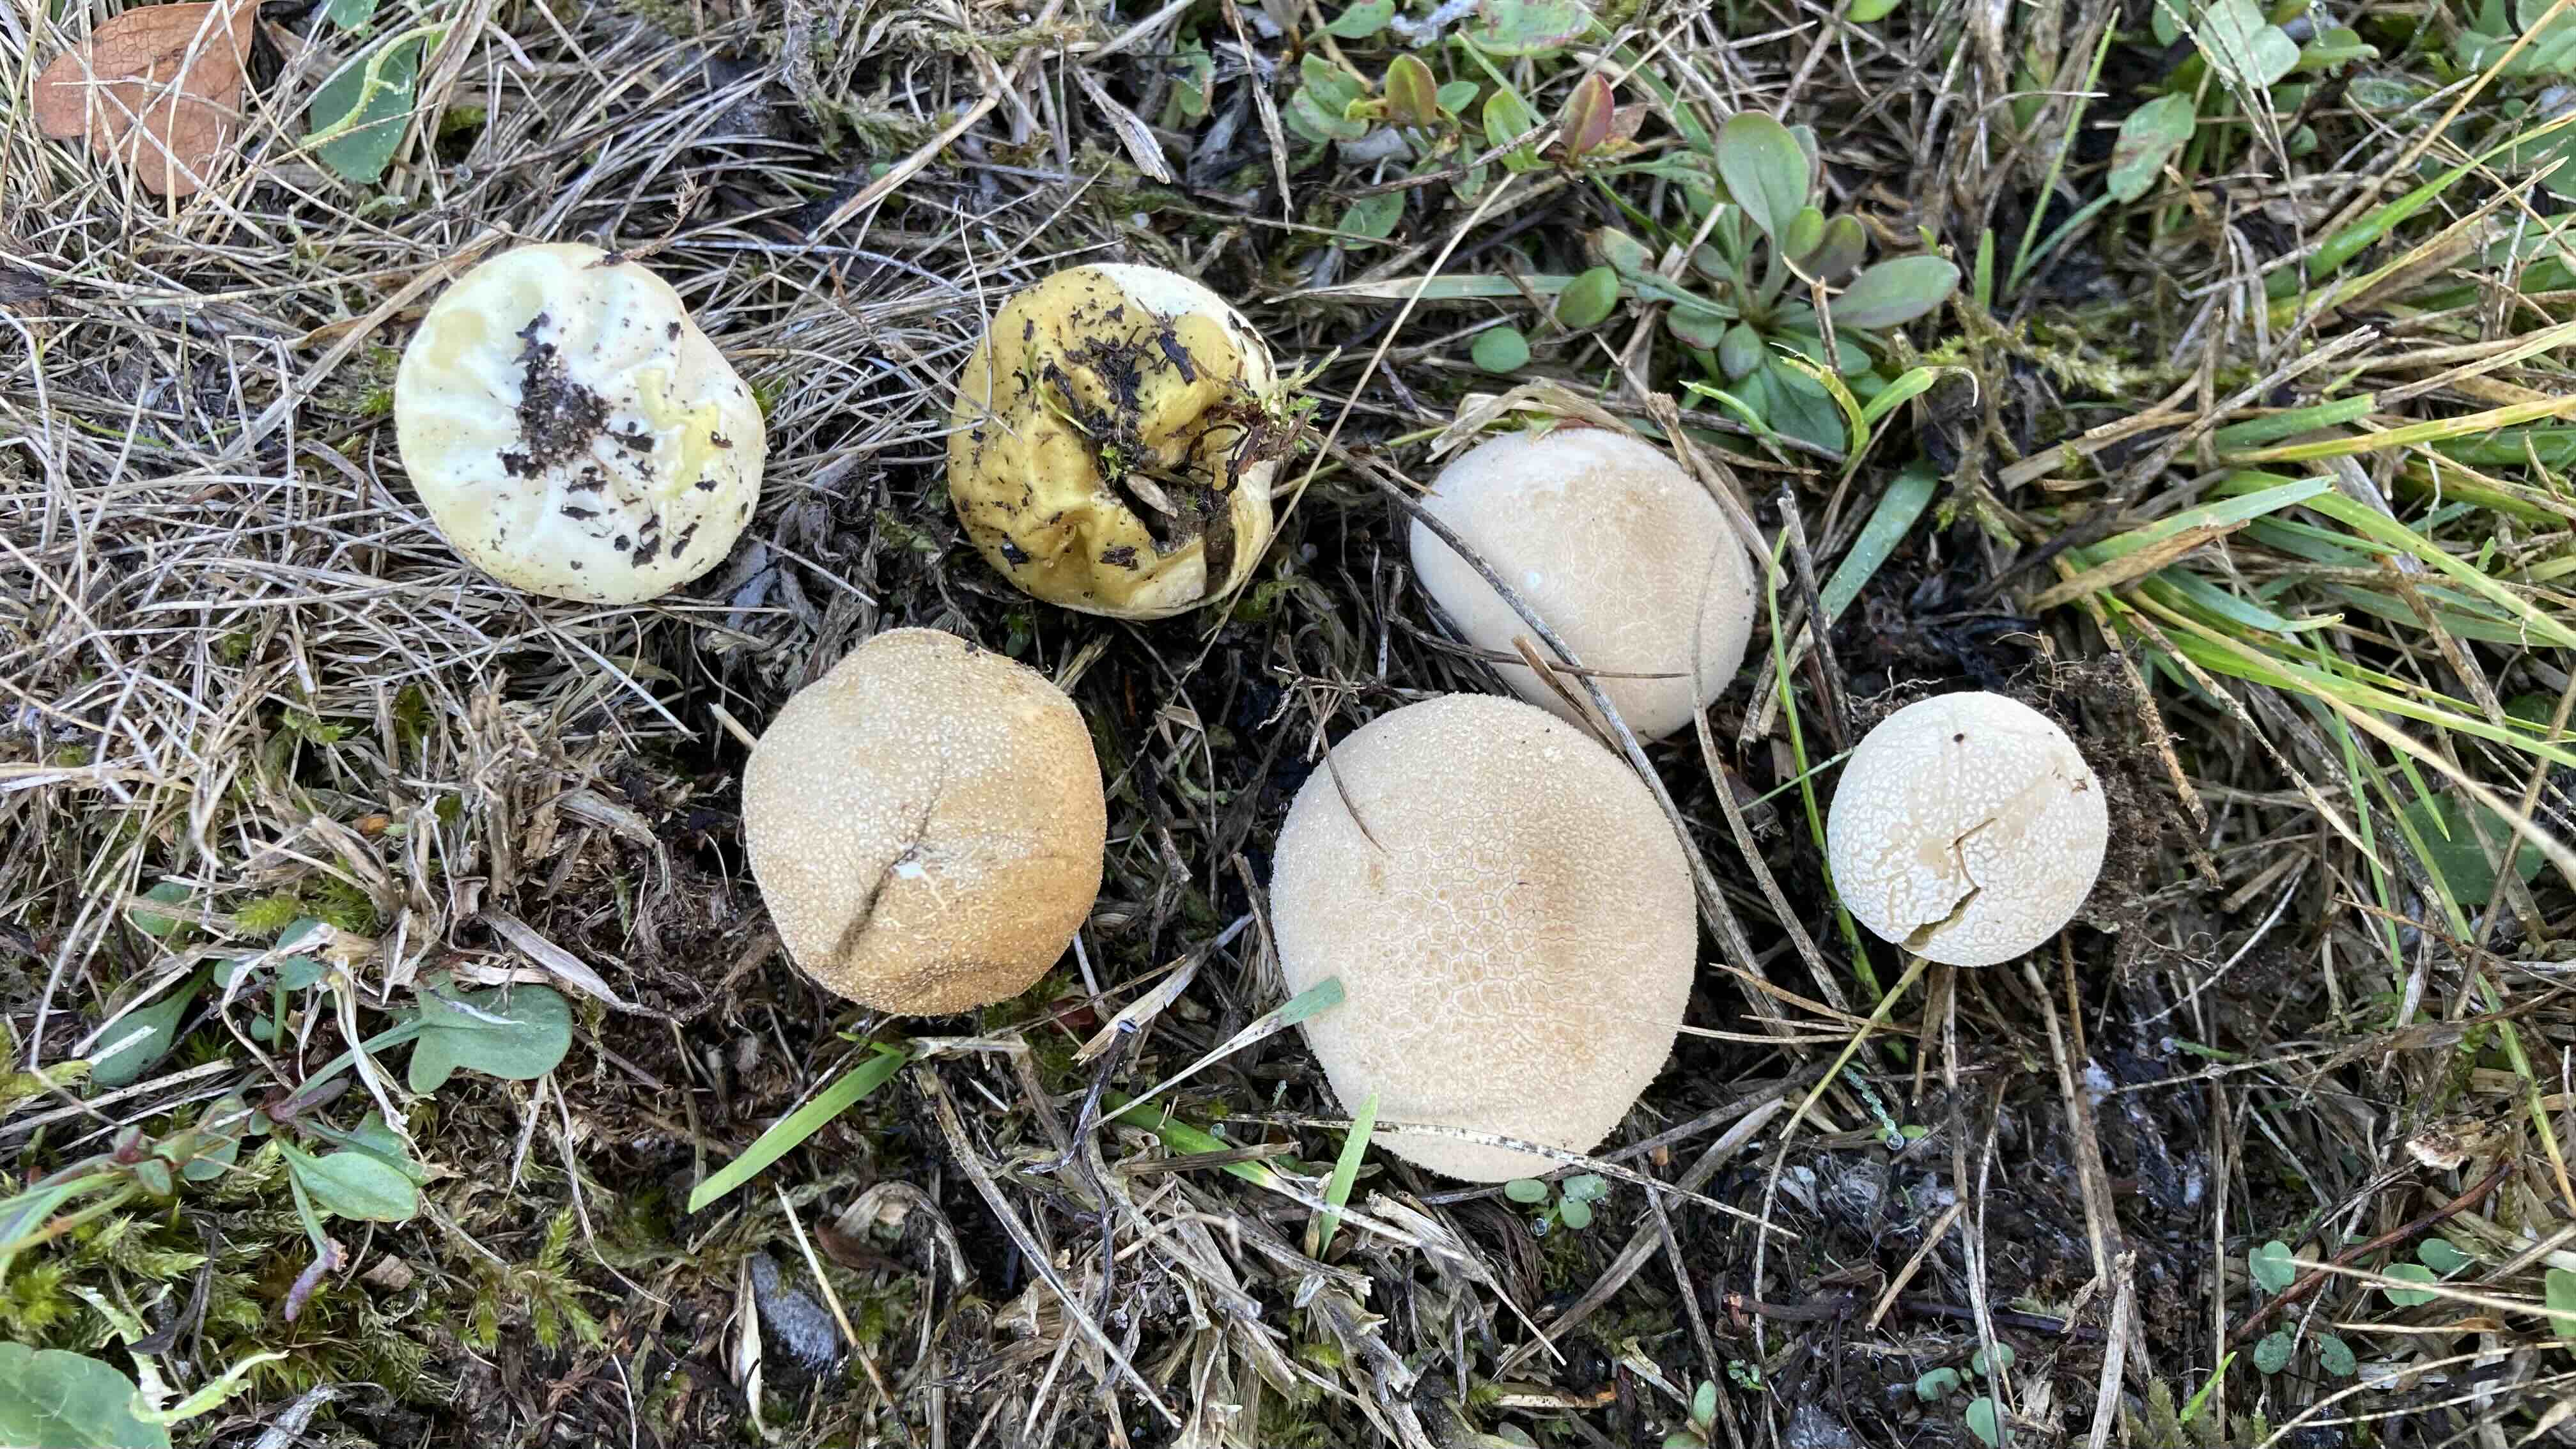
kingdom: Fungi
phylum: Basidiomycota
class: Agaricomycetes
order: Agaricales
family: Lycoperdaceae
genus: Lycoperdon
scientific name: Lycoperdon dermoxanthum
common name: Dwarf puffball
